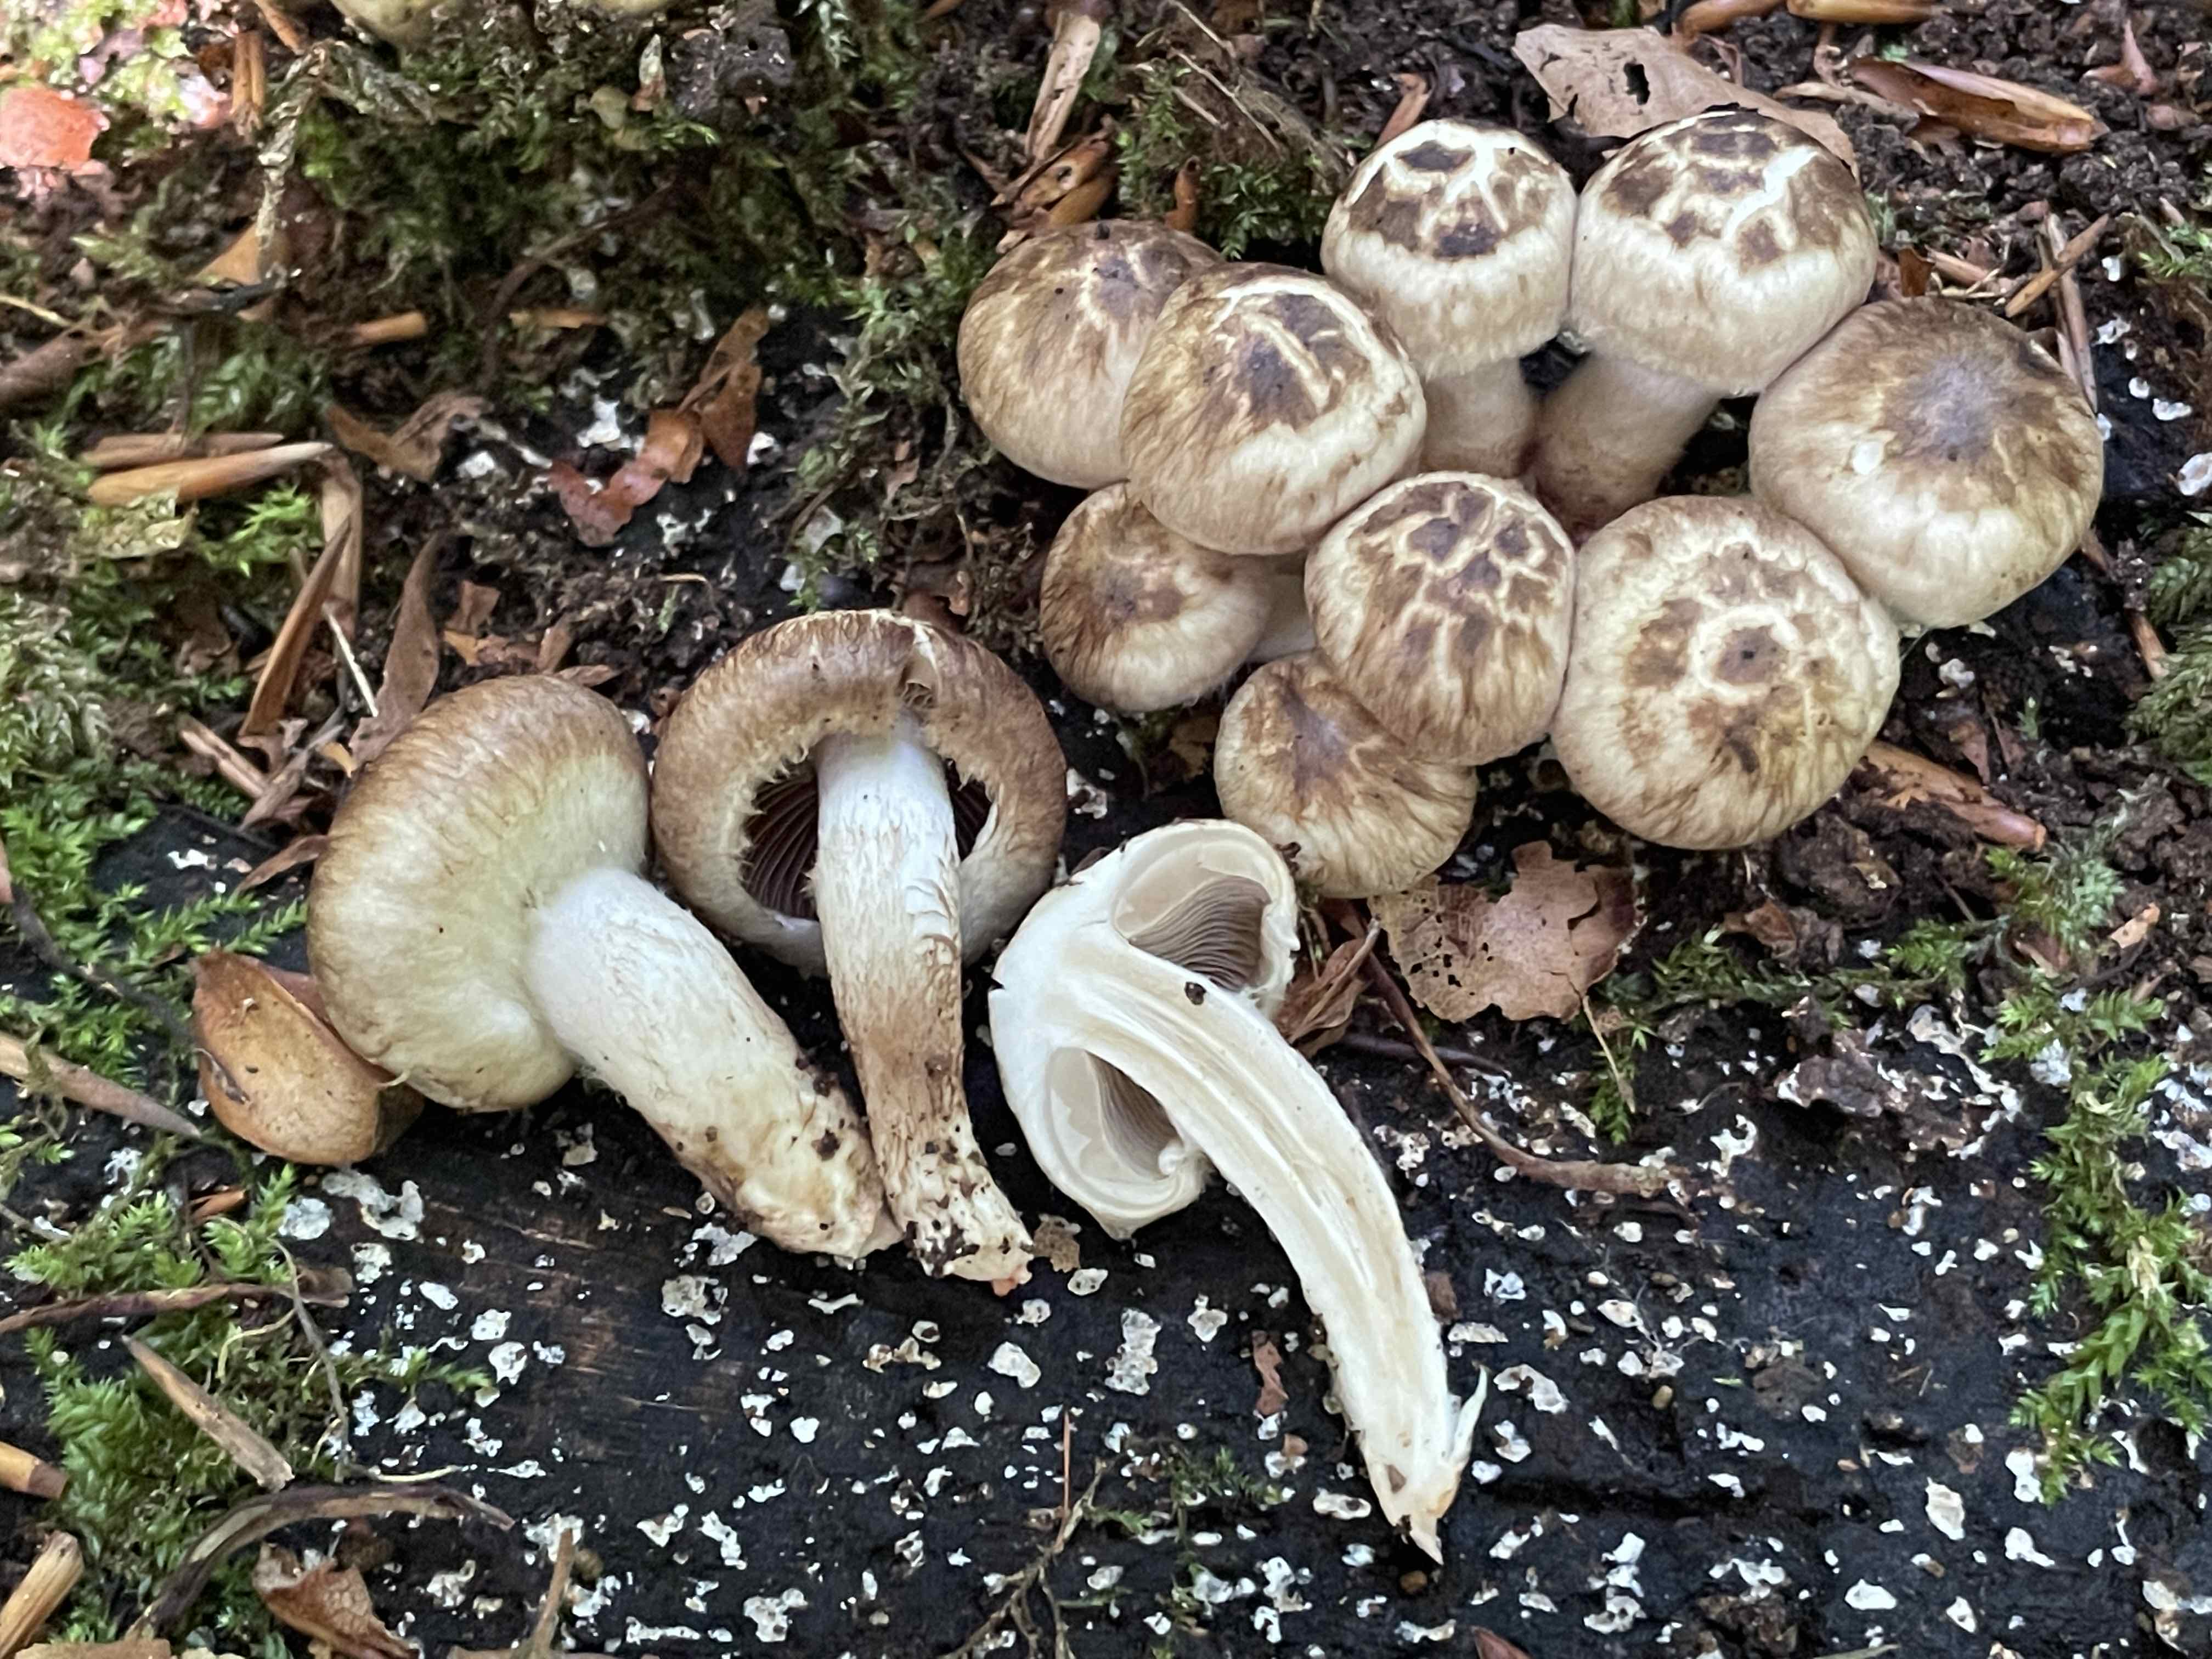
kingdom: Fungi
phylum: Basidiomycota
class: Agaricomycetes
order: Agaricales
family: Psathyrellaceae
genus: Psathyrella
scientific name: Psathyrella maculata
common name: sortskællet mørkhat
